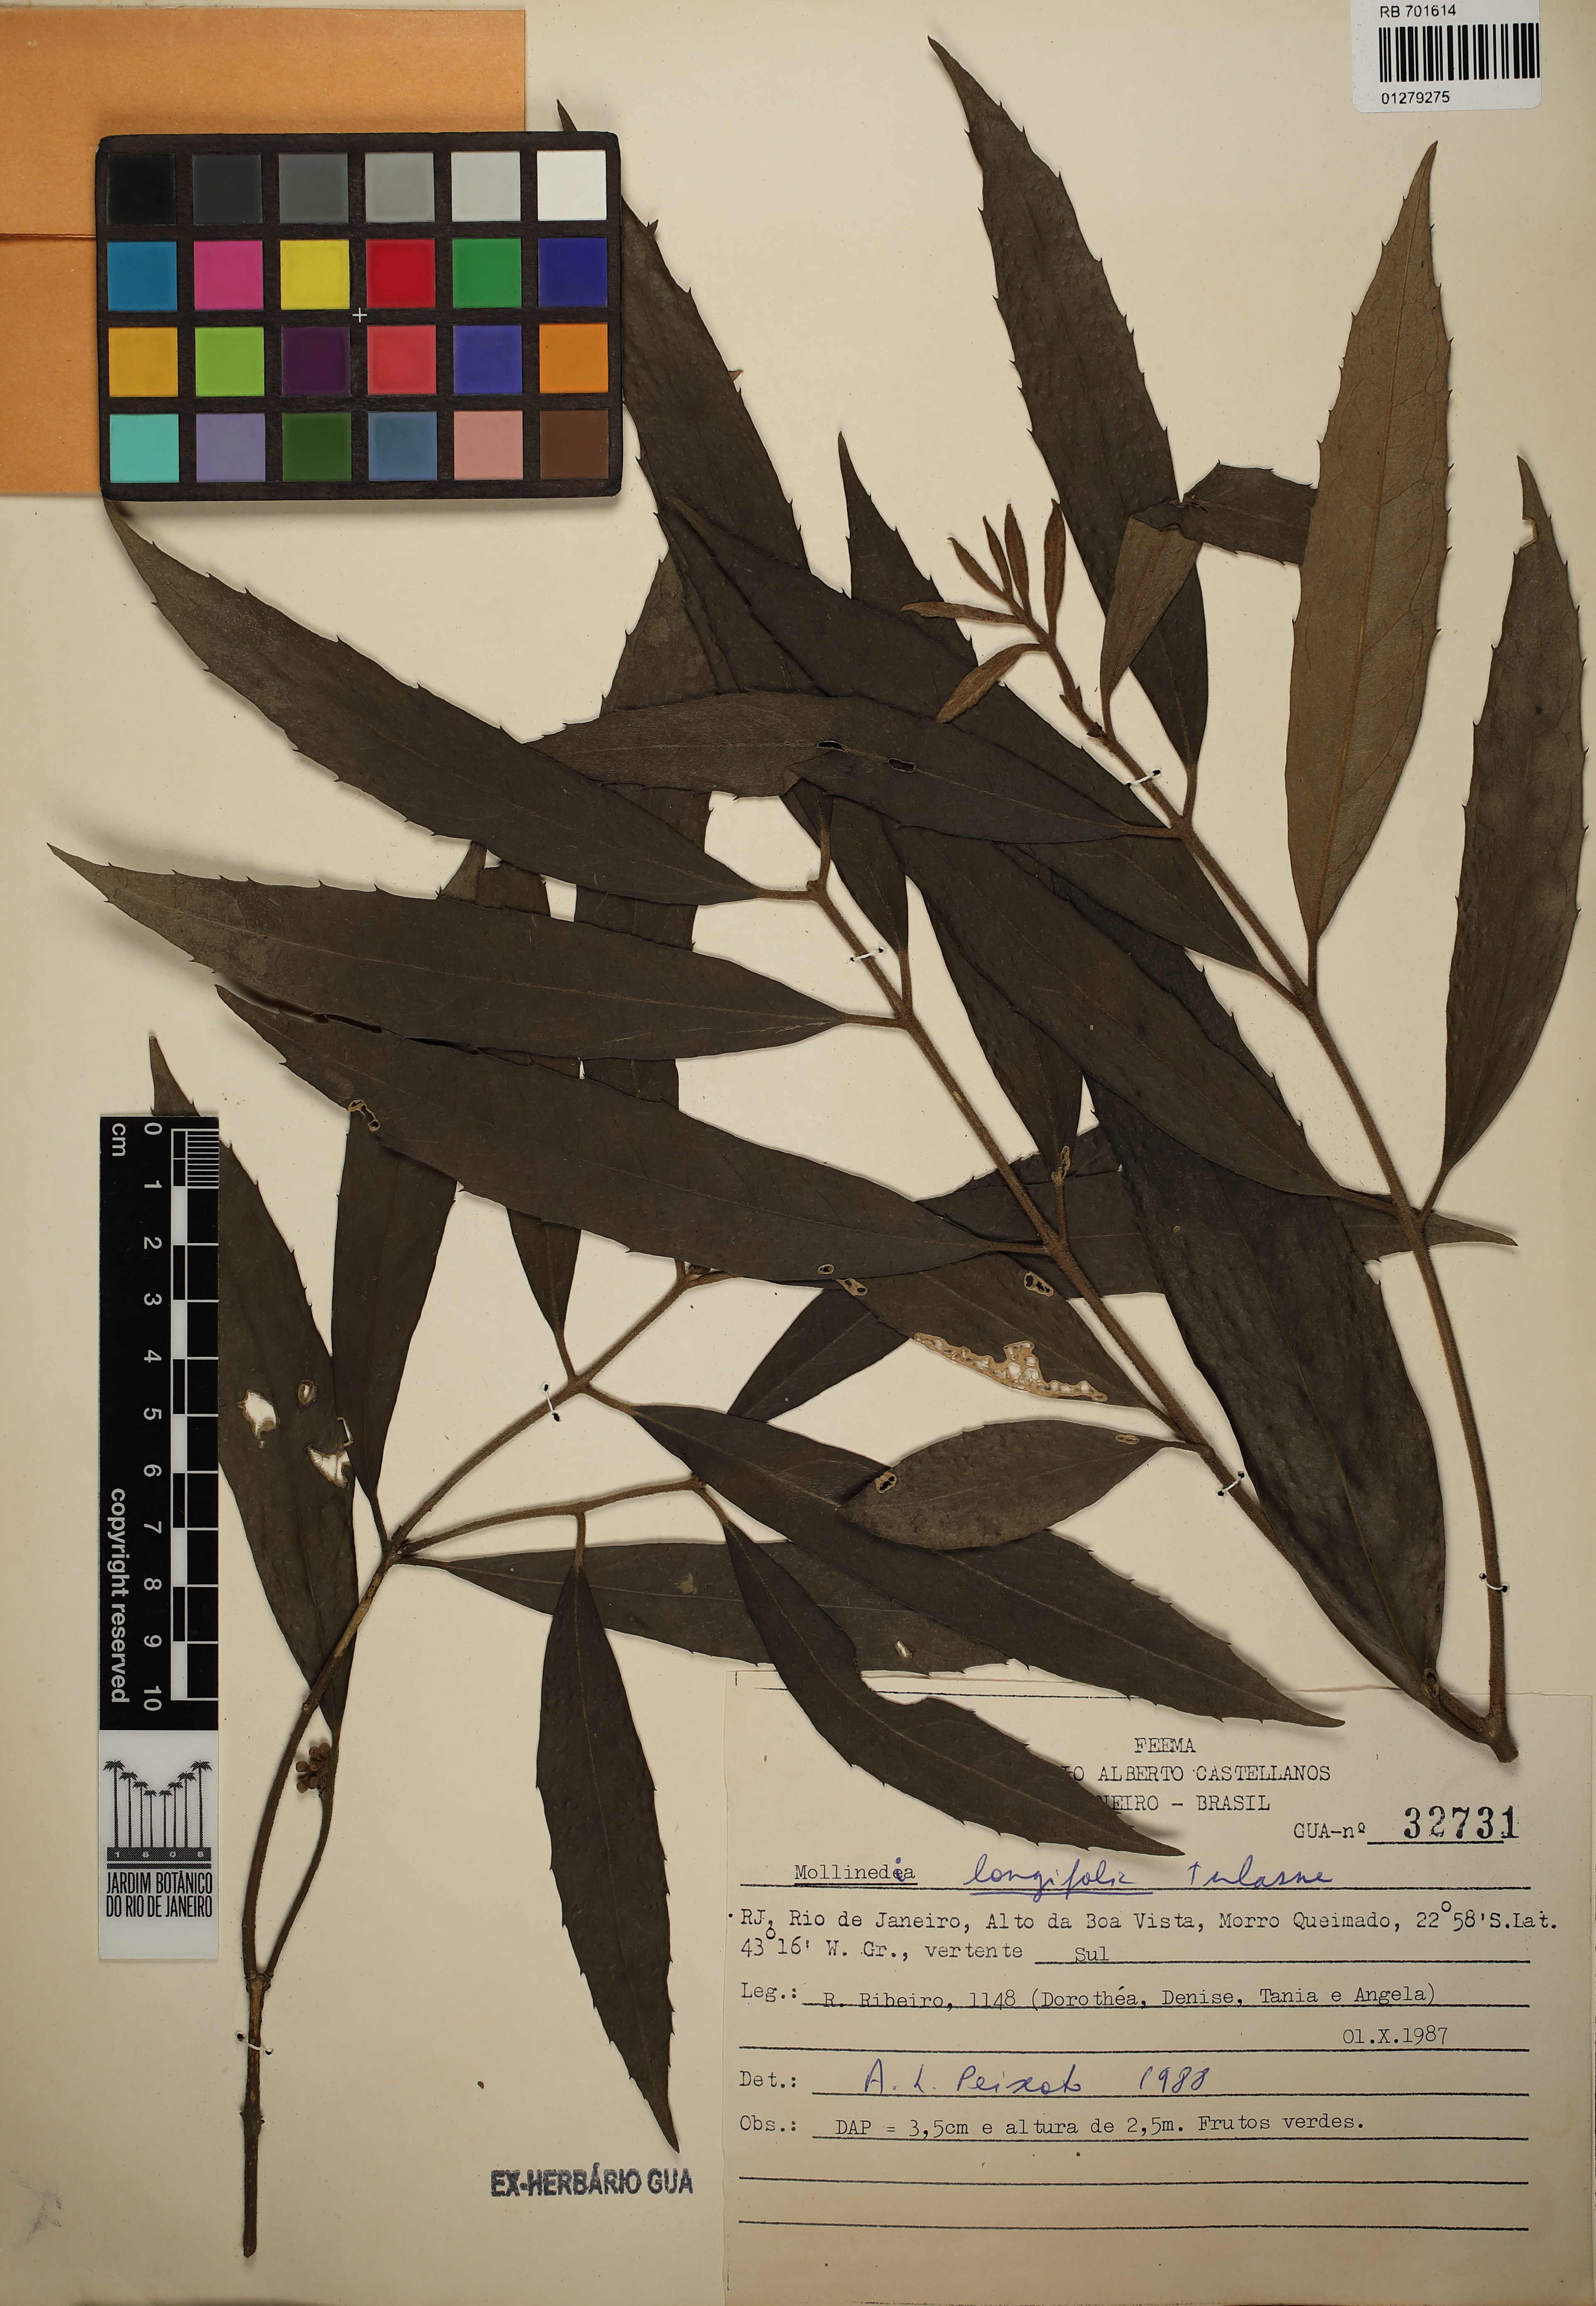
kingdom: Plantae
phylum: Tracheophyta
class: Magnoliopsida
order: Laurales
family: Monimiaceae
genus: Mollinedia
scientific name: Mollinedia longifolia
